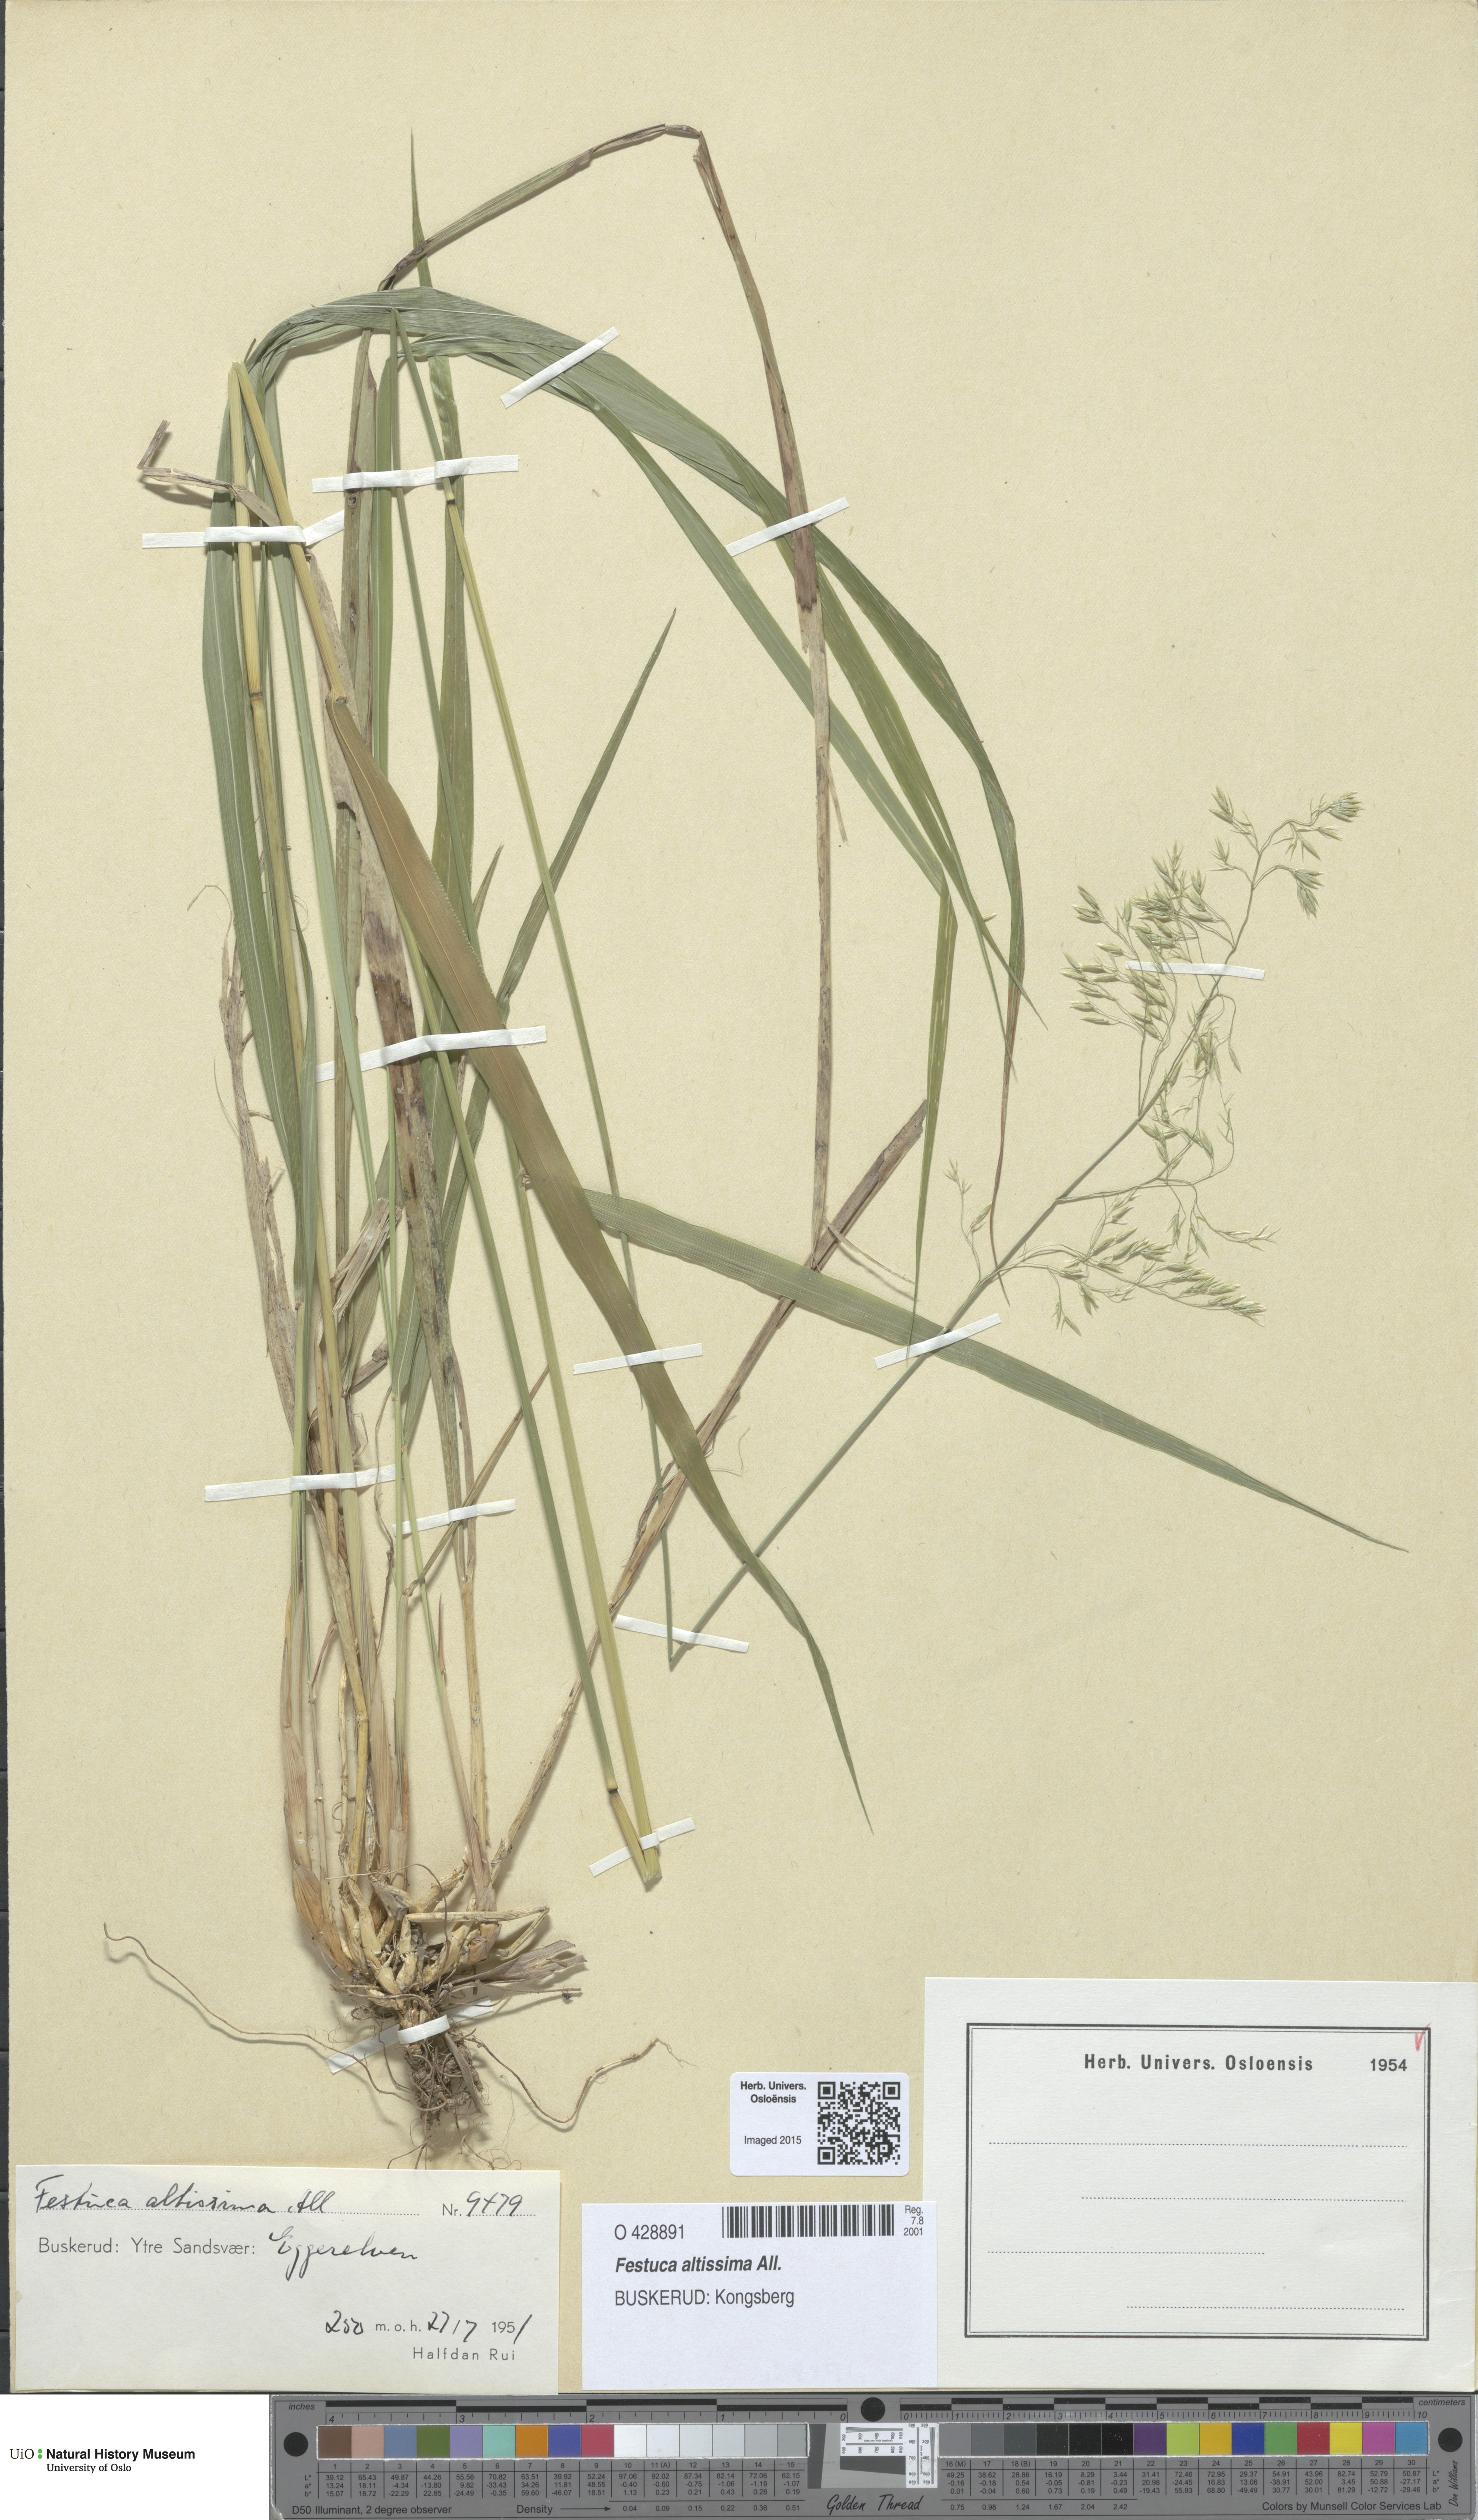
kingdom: Plantae
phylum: Tracheophyta
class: Liliopsida
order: Poales
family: Poaceae
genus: Festuca
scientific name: Festuca altissima
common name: Wood fescue
